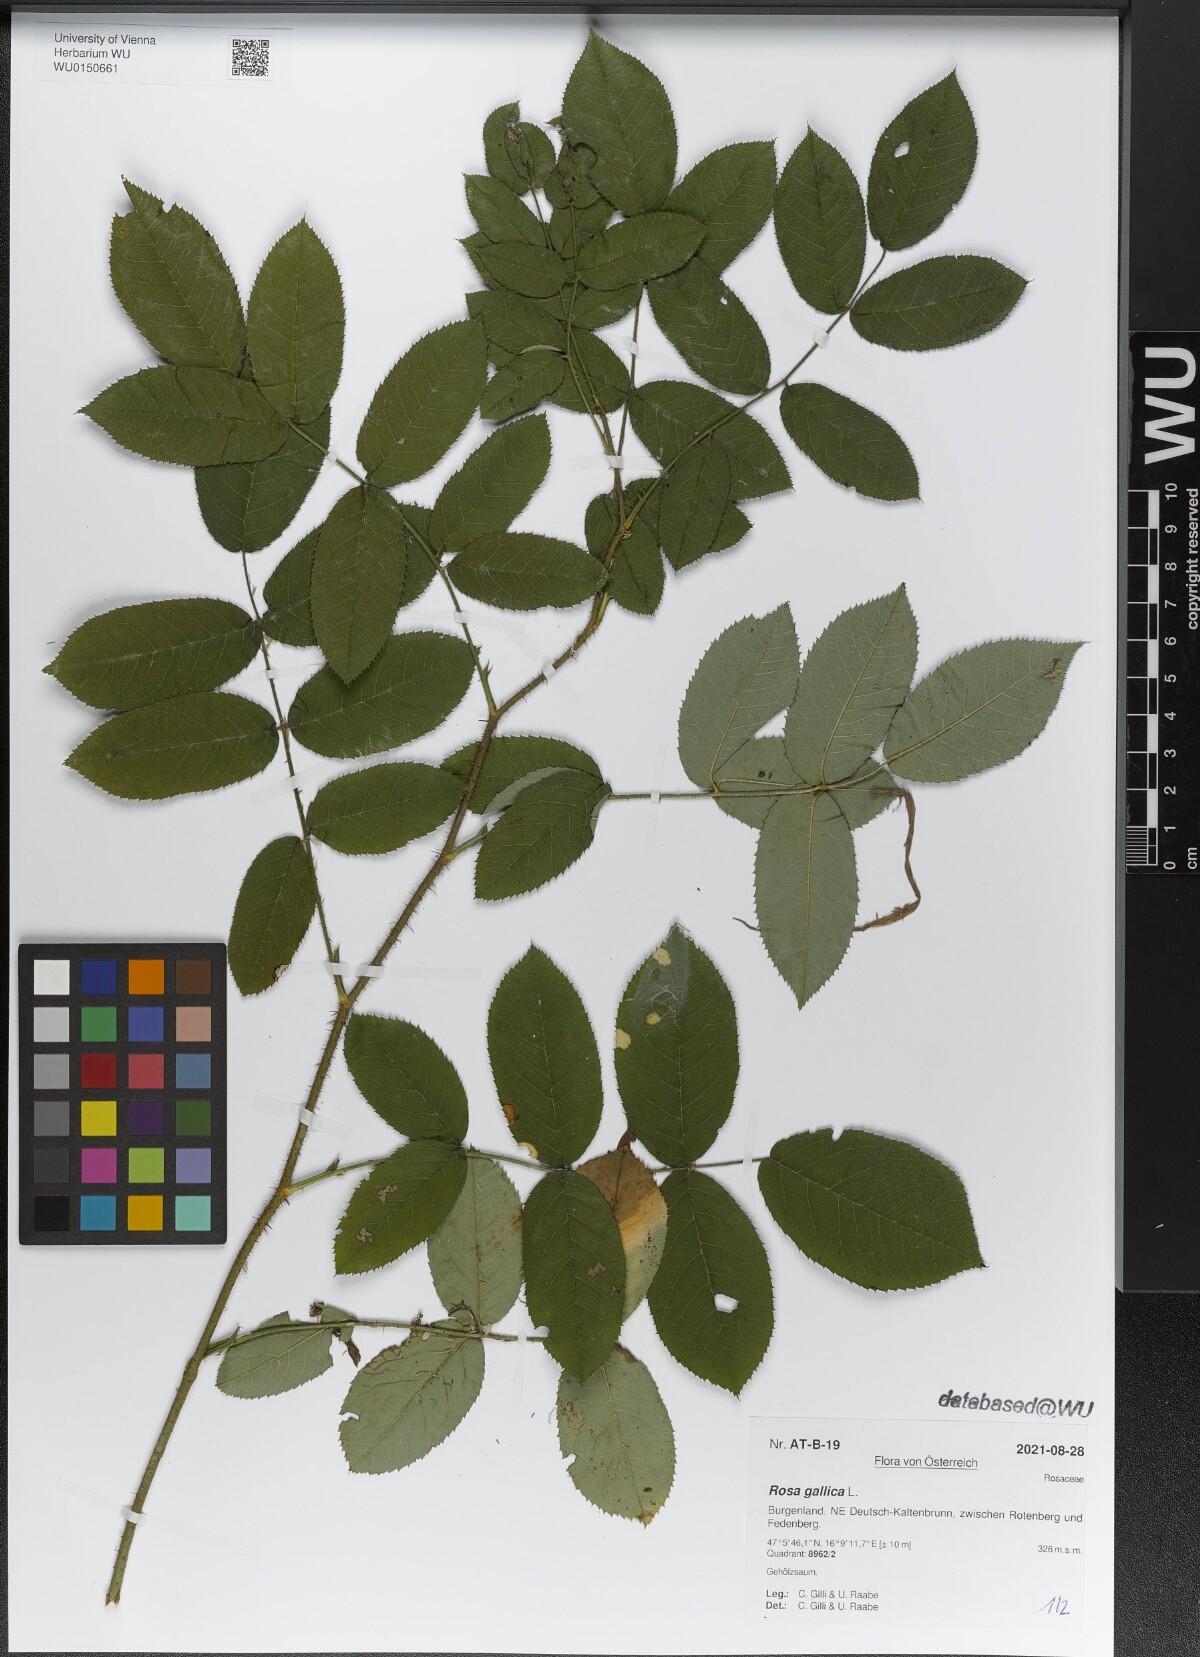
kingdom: Plantae
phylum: Tracheophyta
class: Magnoliopsida
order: Rosales
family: Rosaceae
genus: Rosa
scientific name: Rosa gallica
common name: French rose
